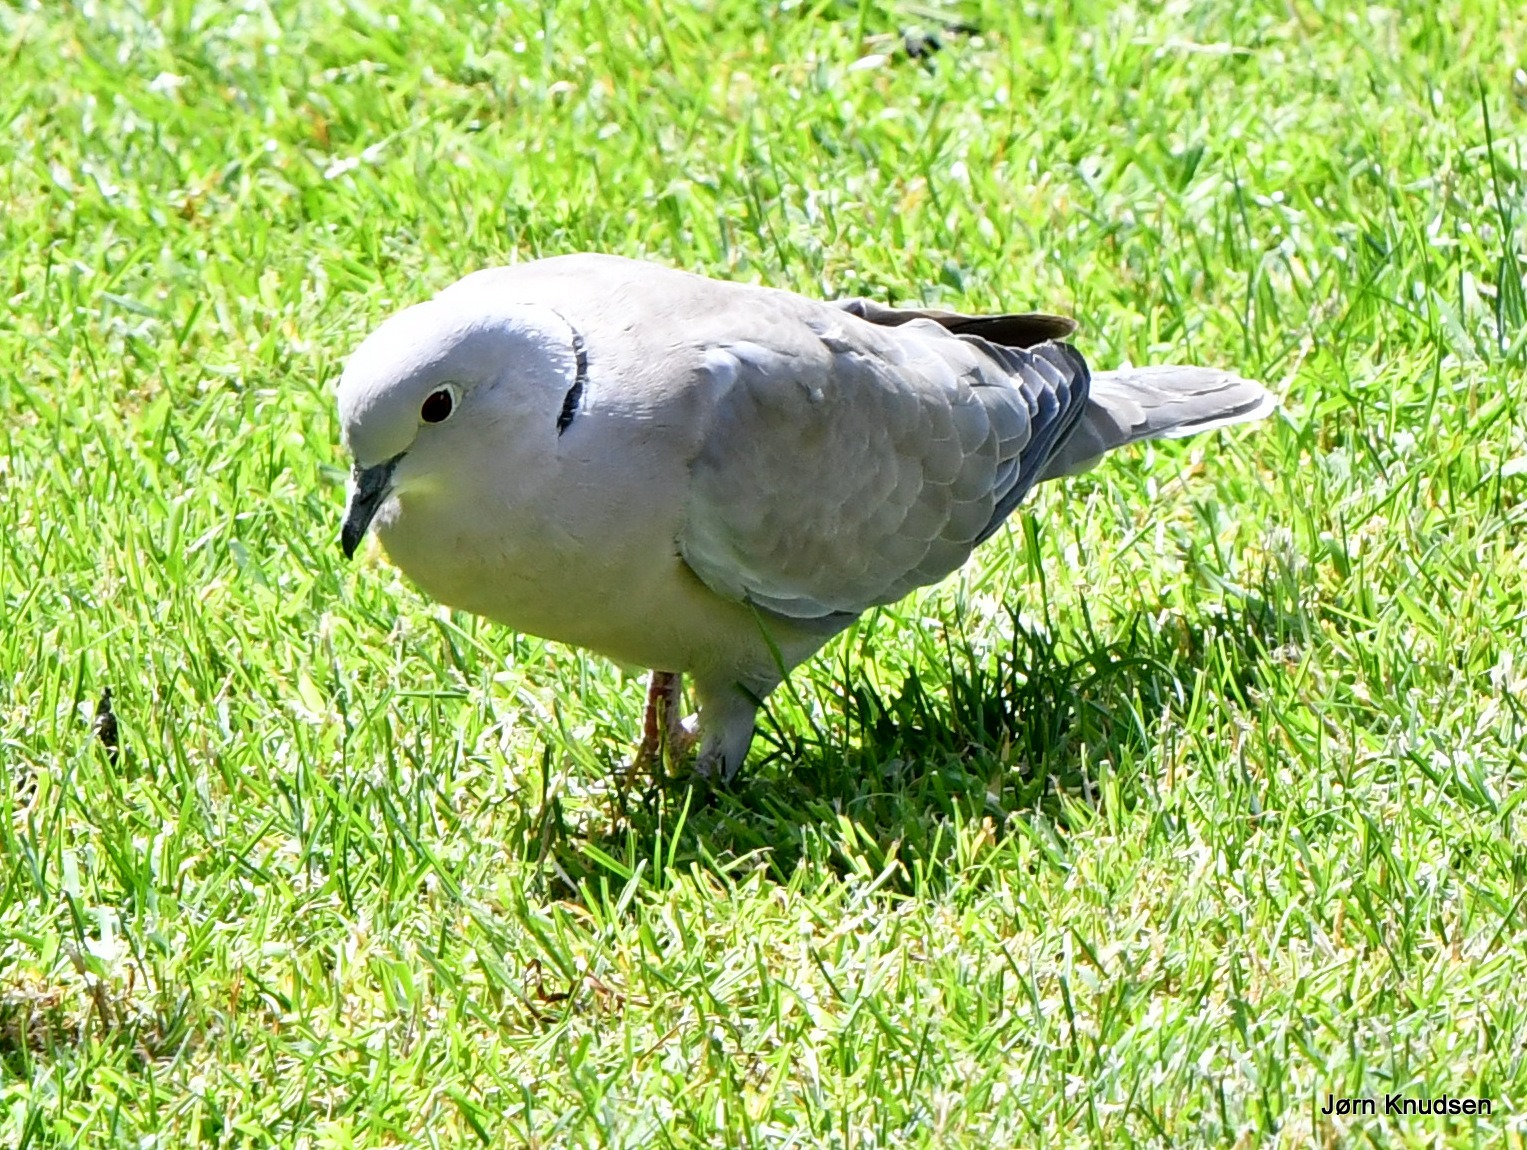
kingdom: Animalia
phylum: Chordata
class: Aves
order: Columbiformes
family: Columbidae
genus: Streptopelia
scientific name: Streptopelia decaocto
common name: Tyrkerdue
